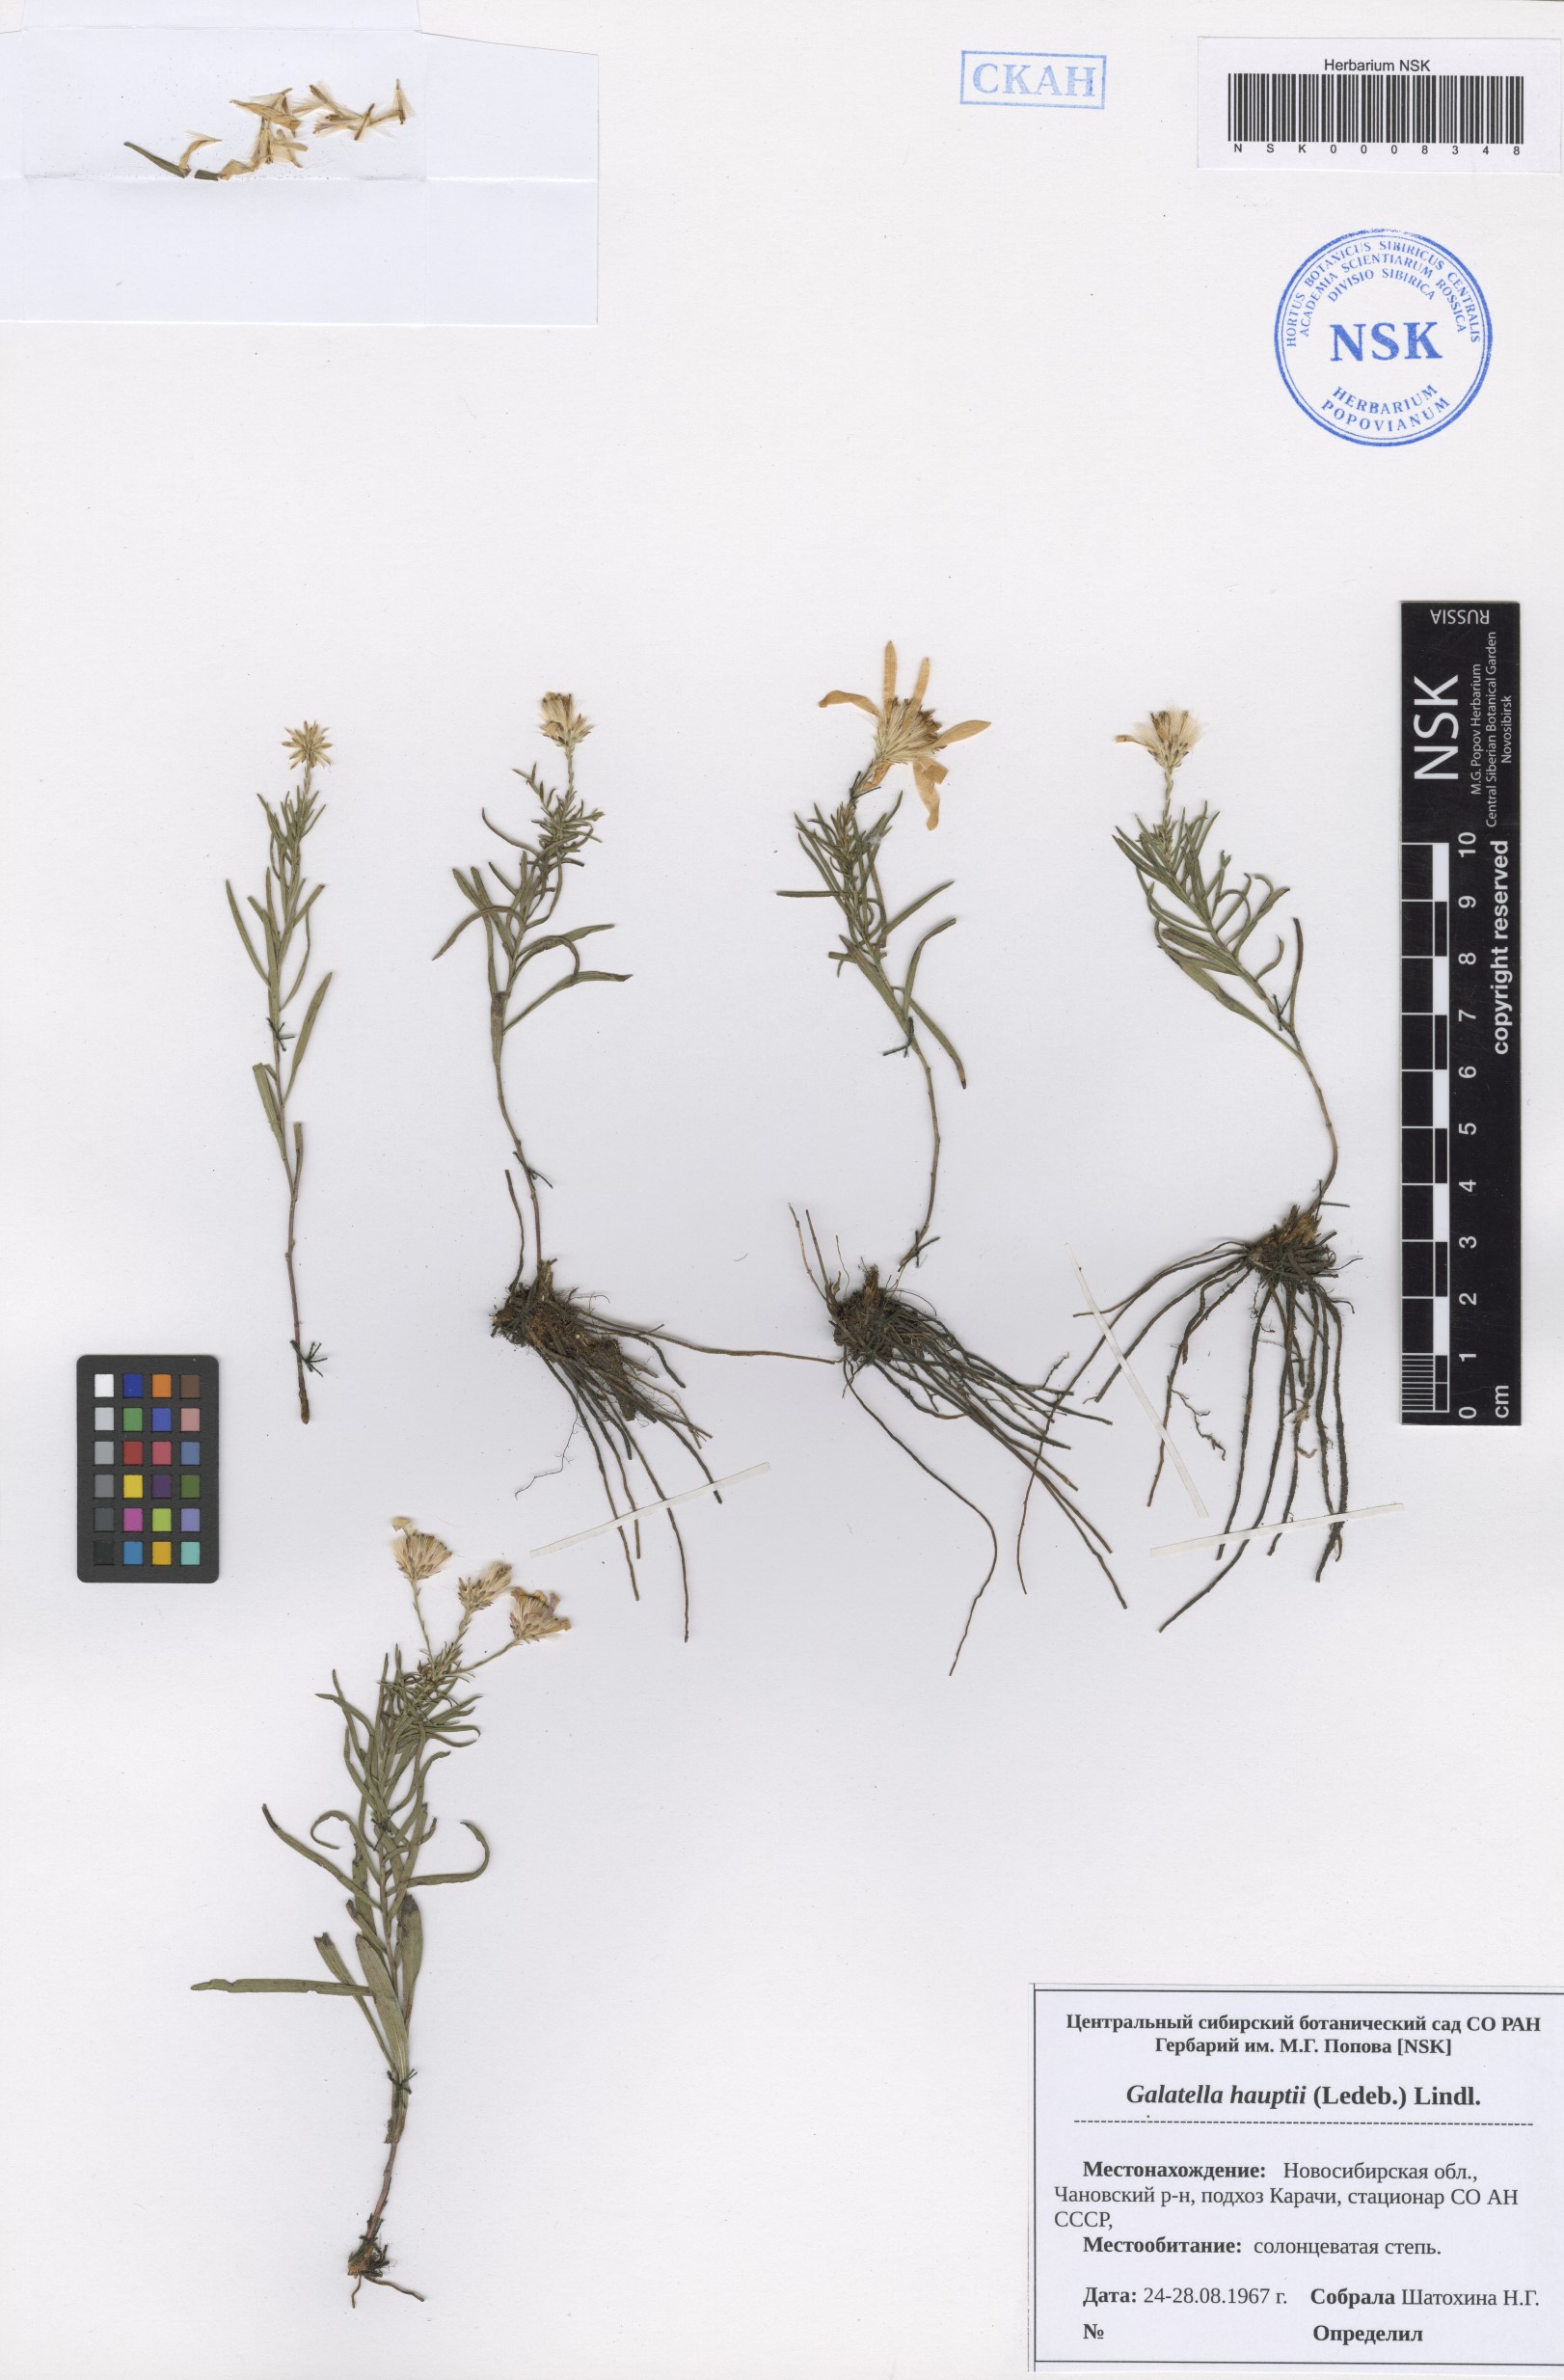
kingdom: Plantae
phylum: Tracheophyta
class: Magnoliopsida
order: Asterales
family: Asteraceae
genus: Galatella
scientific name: Galatella hauptii
